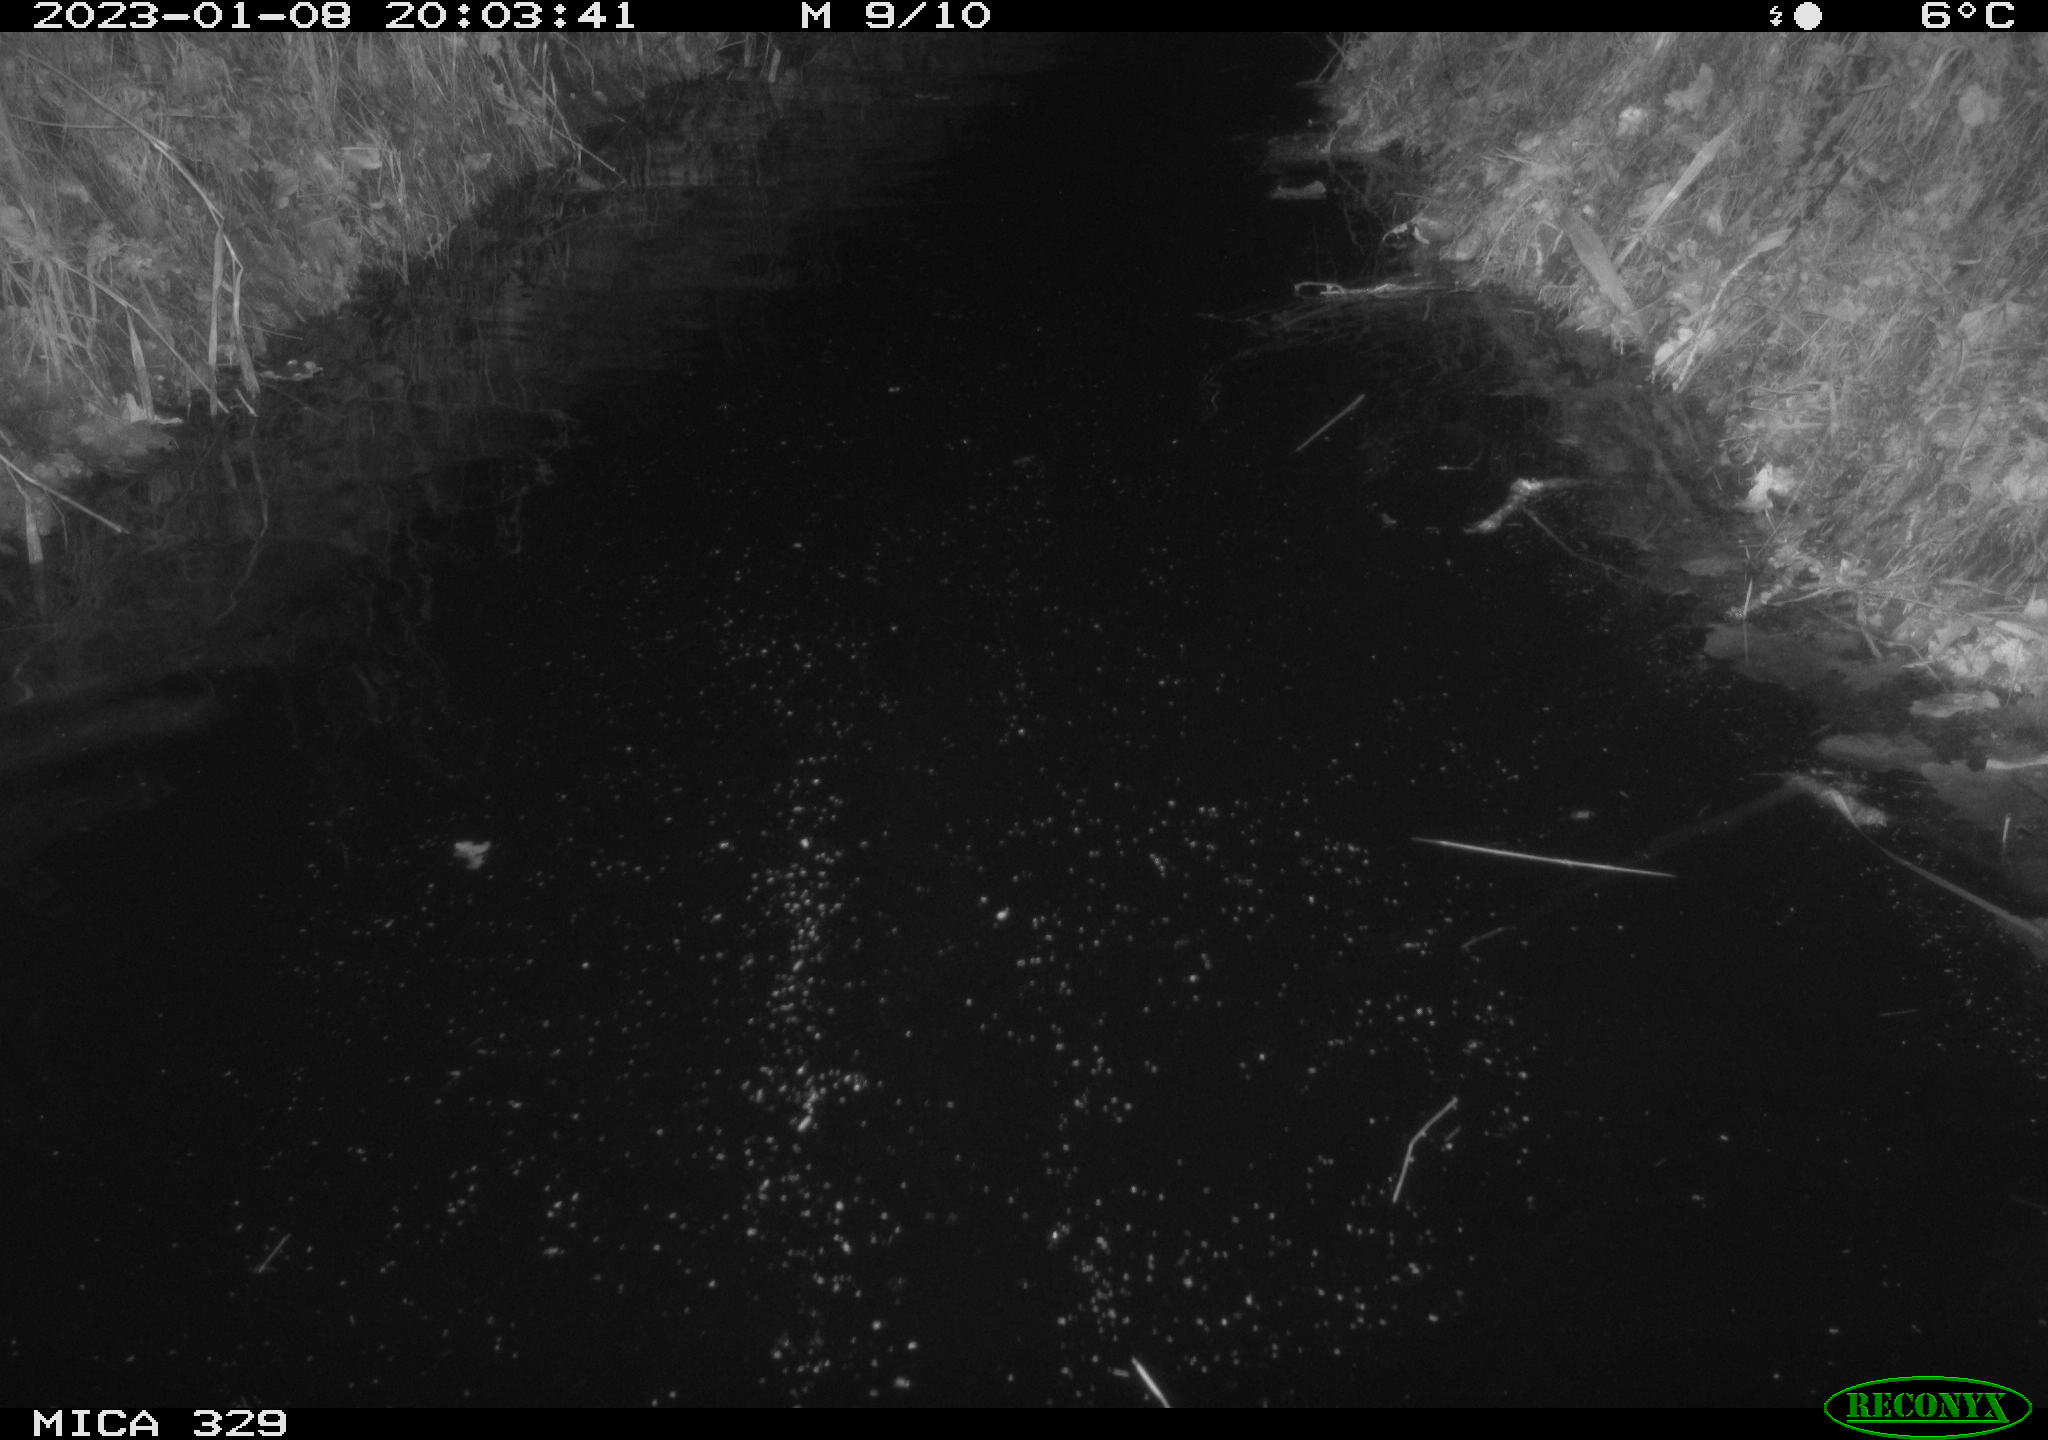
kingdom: Animalia
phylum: Chordata
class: Mammalia
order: Rodentia
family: Cricetidae
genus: Ondatra
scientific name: Ondatra zibethicus
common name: Muskrat
